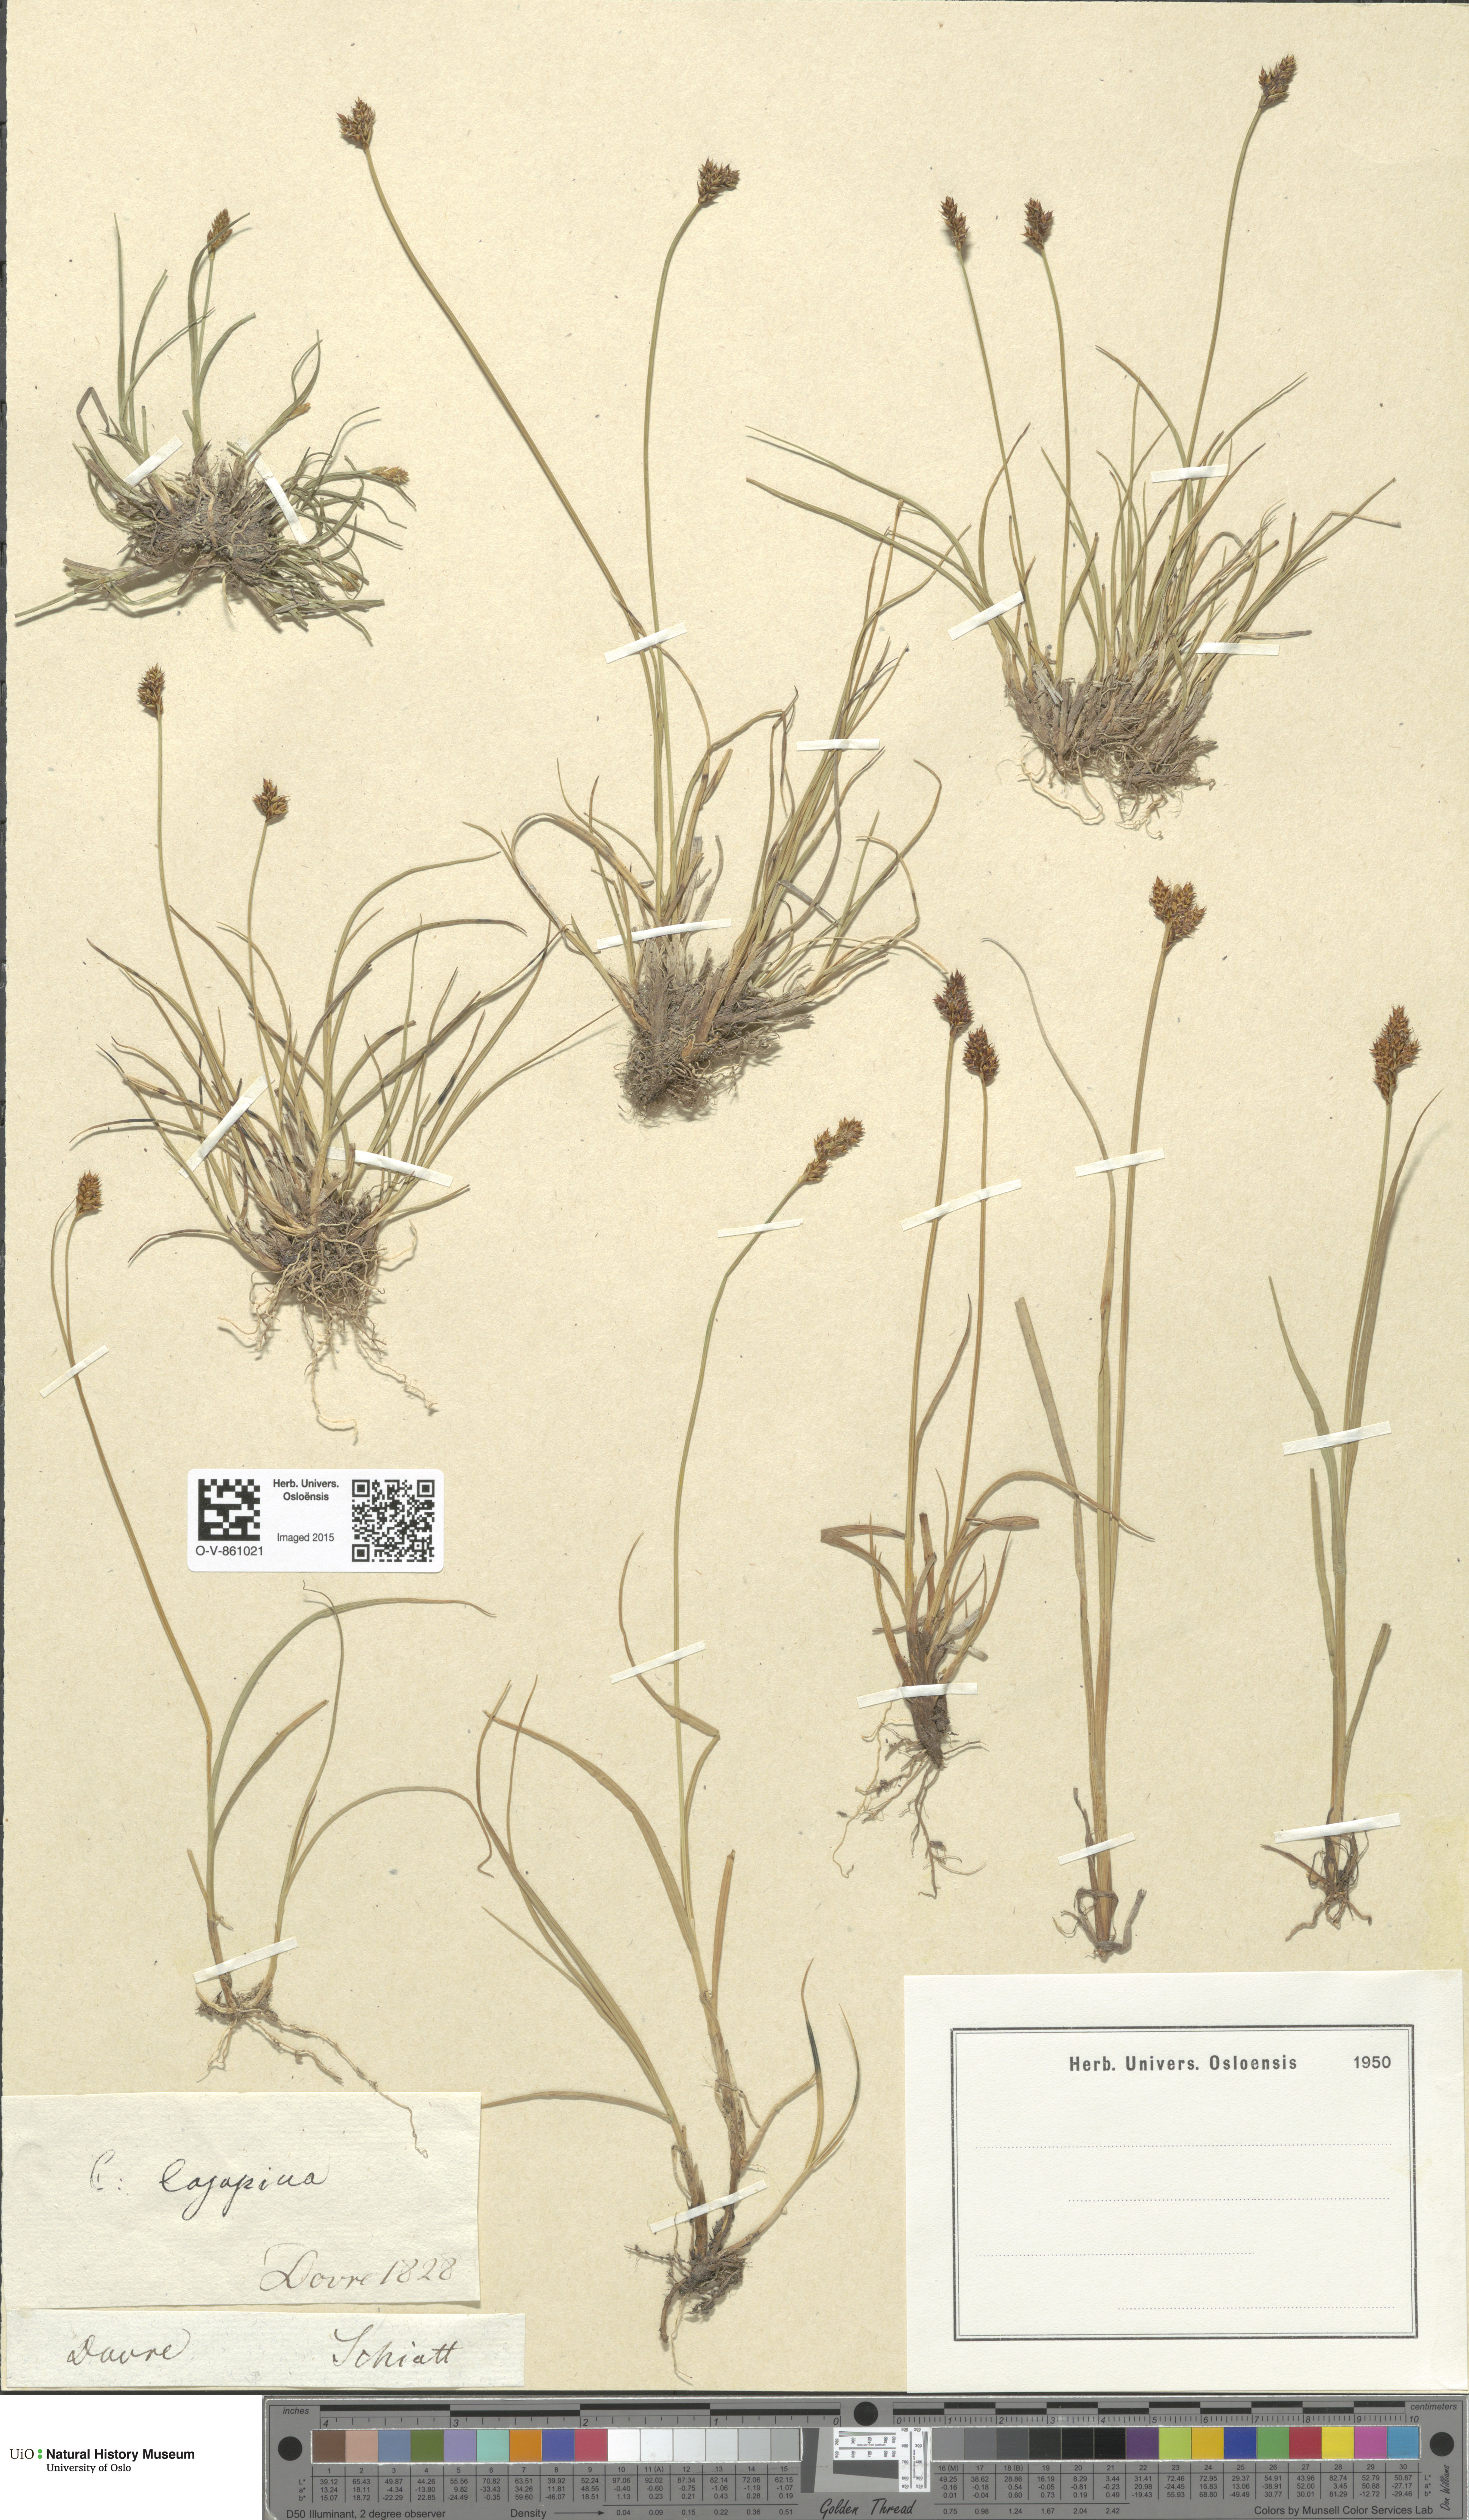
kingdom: Plantae
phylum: Tracheophyta
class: Liliopsida
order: Poales
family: Cyperaceae
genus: Carex
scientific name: Carex lachenalii
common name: Hare's-foot sedge
